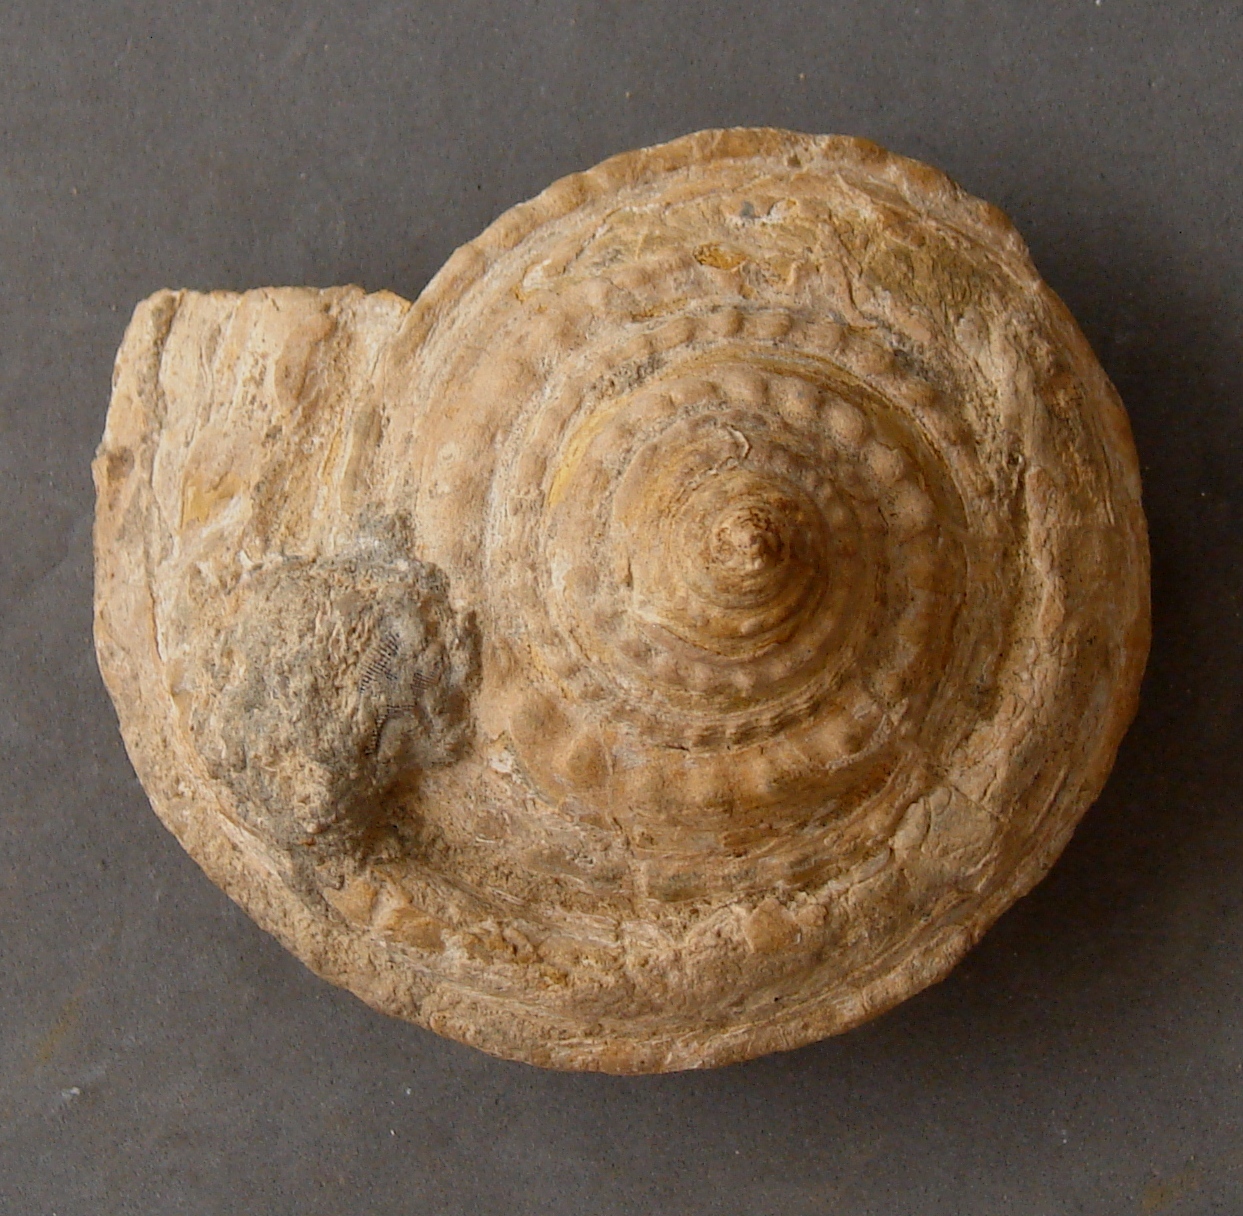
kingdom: Animalia
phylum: Mollusca
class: Gastropoda
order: Pleurotomariida
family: Pleurotomariidae
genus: Pleurotomaria
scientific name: Pleurotomaria
